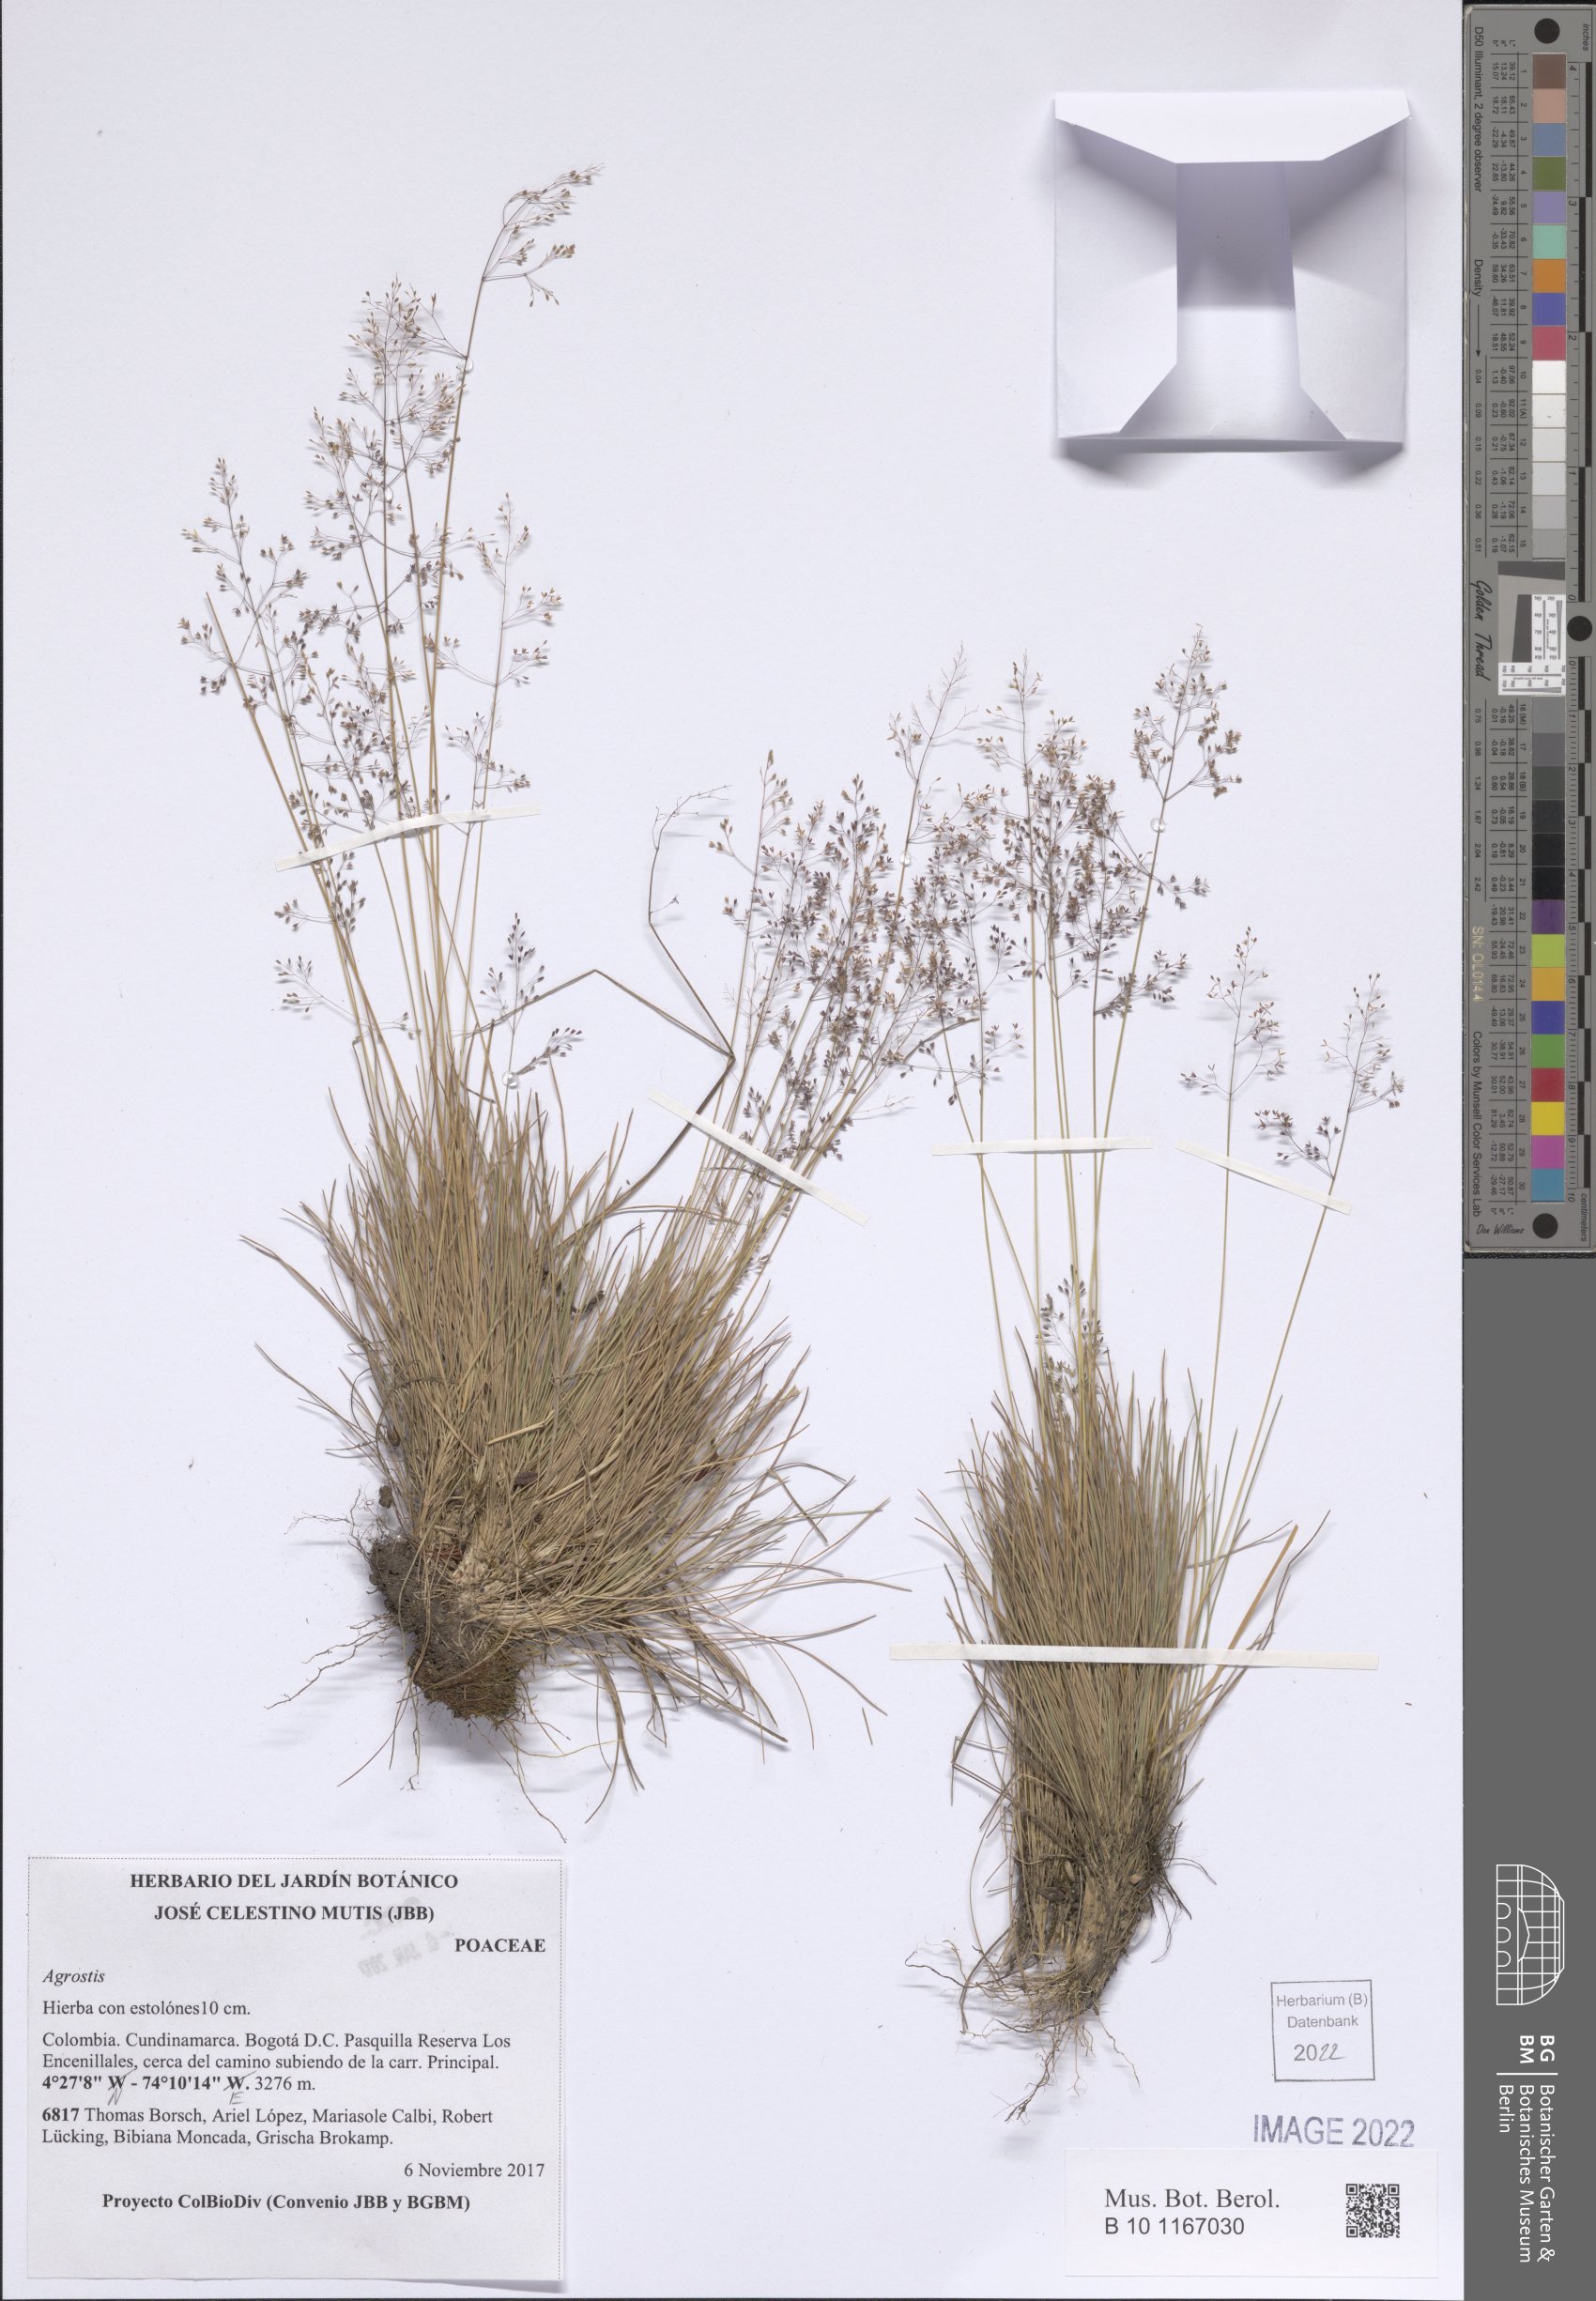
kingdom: Plantae
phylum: Tracheophyta
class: Liliopsida
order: Poales
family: Poaceae
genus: Agrostis
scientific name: Agrostis
